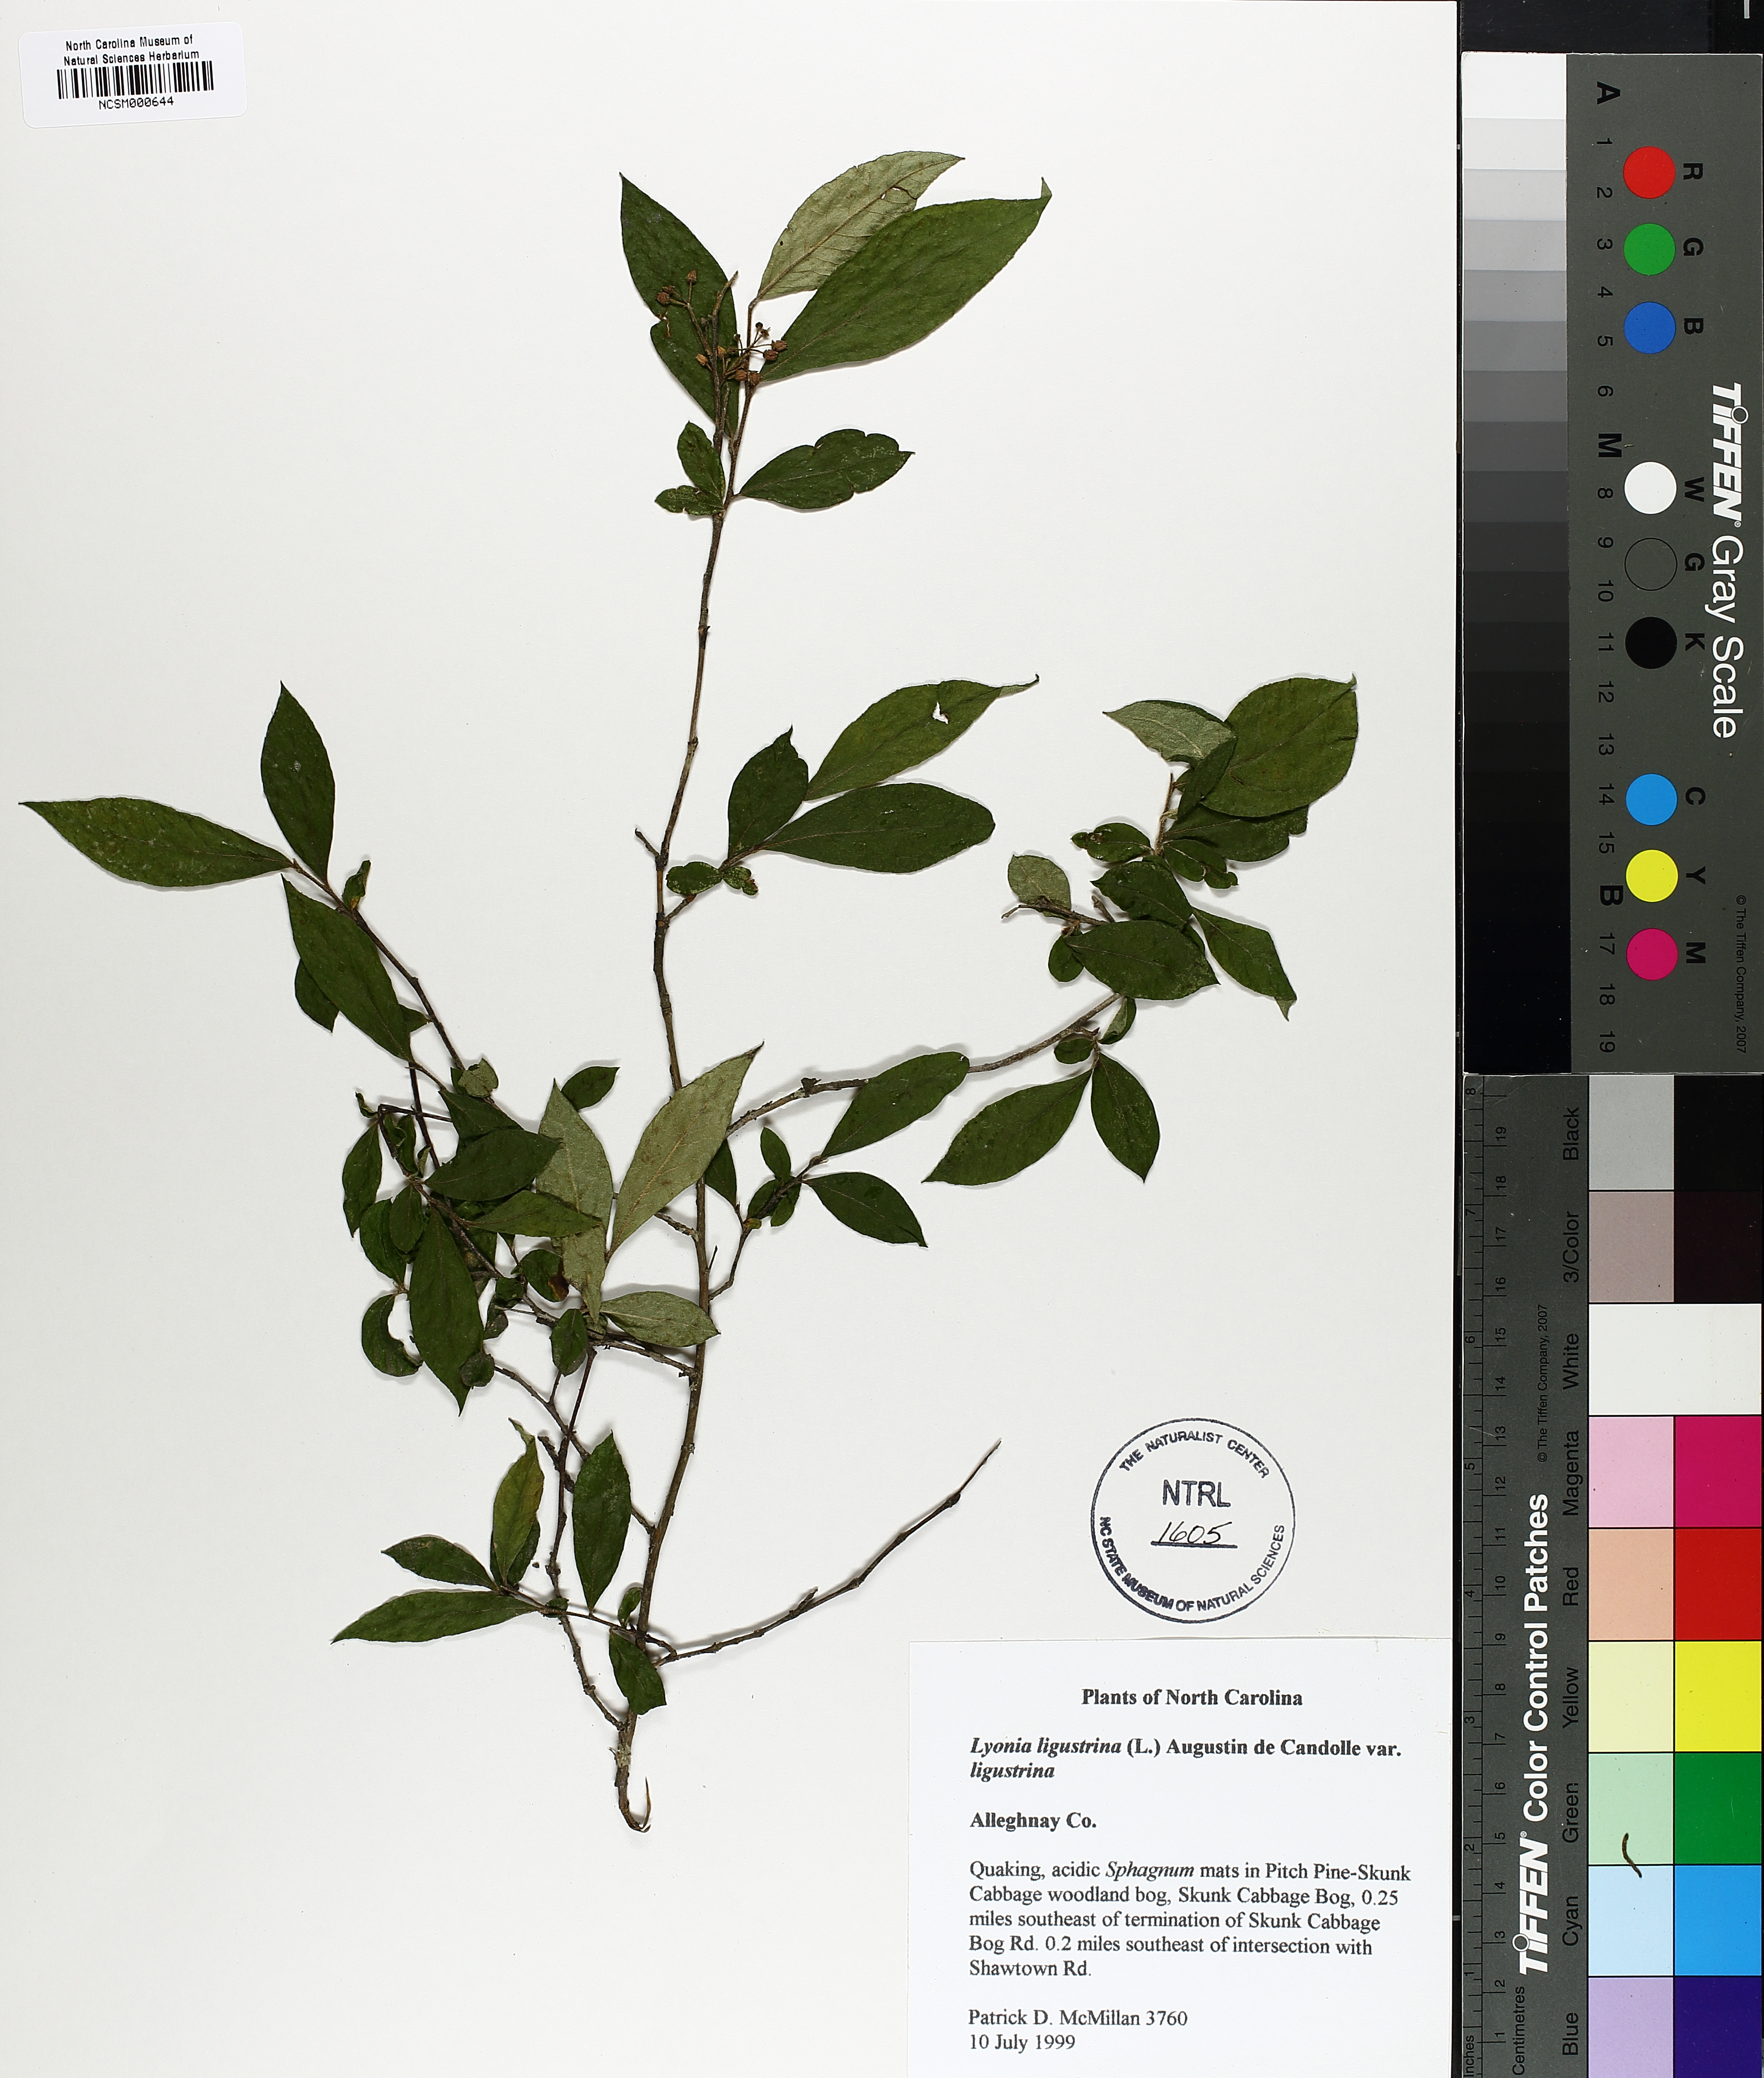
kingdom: Plantae
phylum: Tracheophyta
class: Magnoliopsida
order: Ericales
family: Ericaceae
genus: Lyonia
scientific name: Lyonia ligustrina
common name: Maleberry
